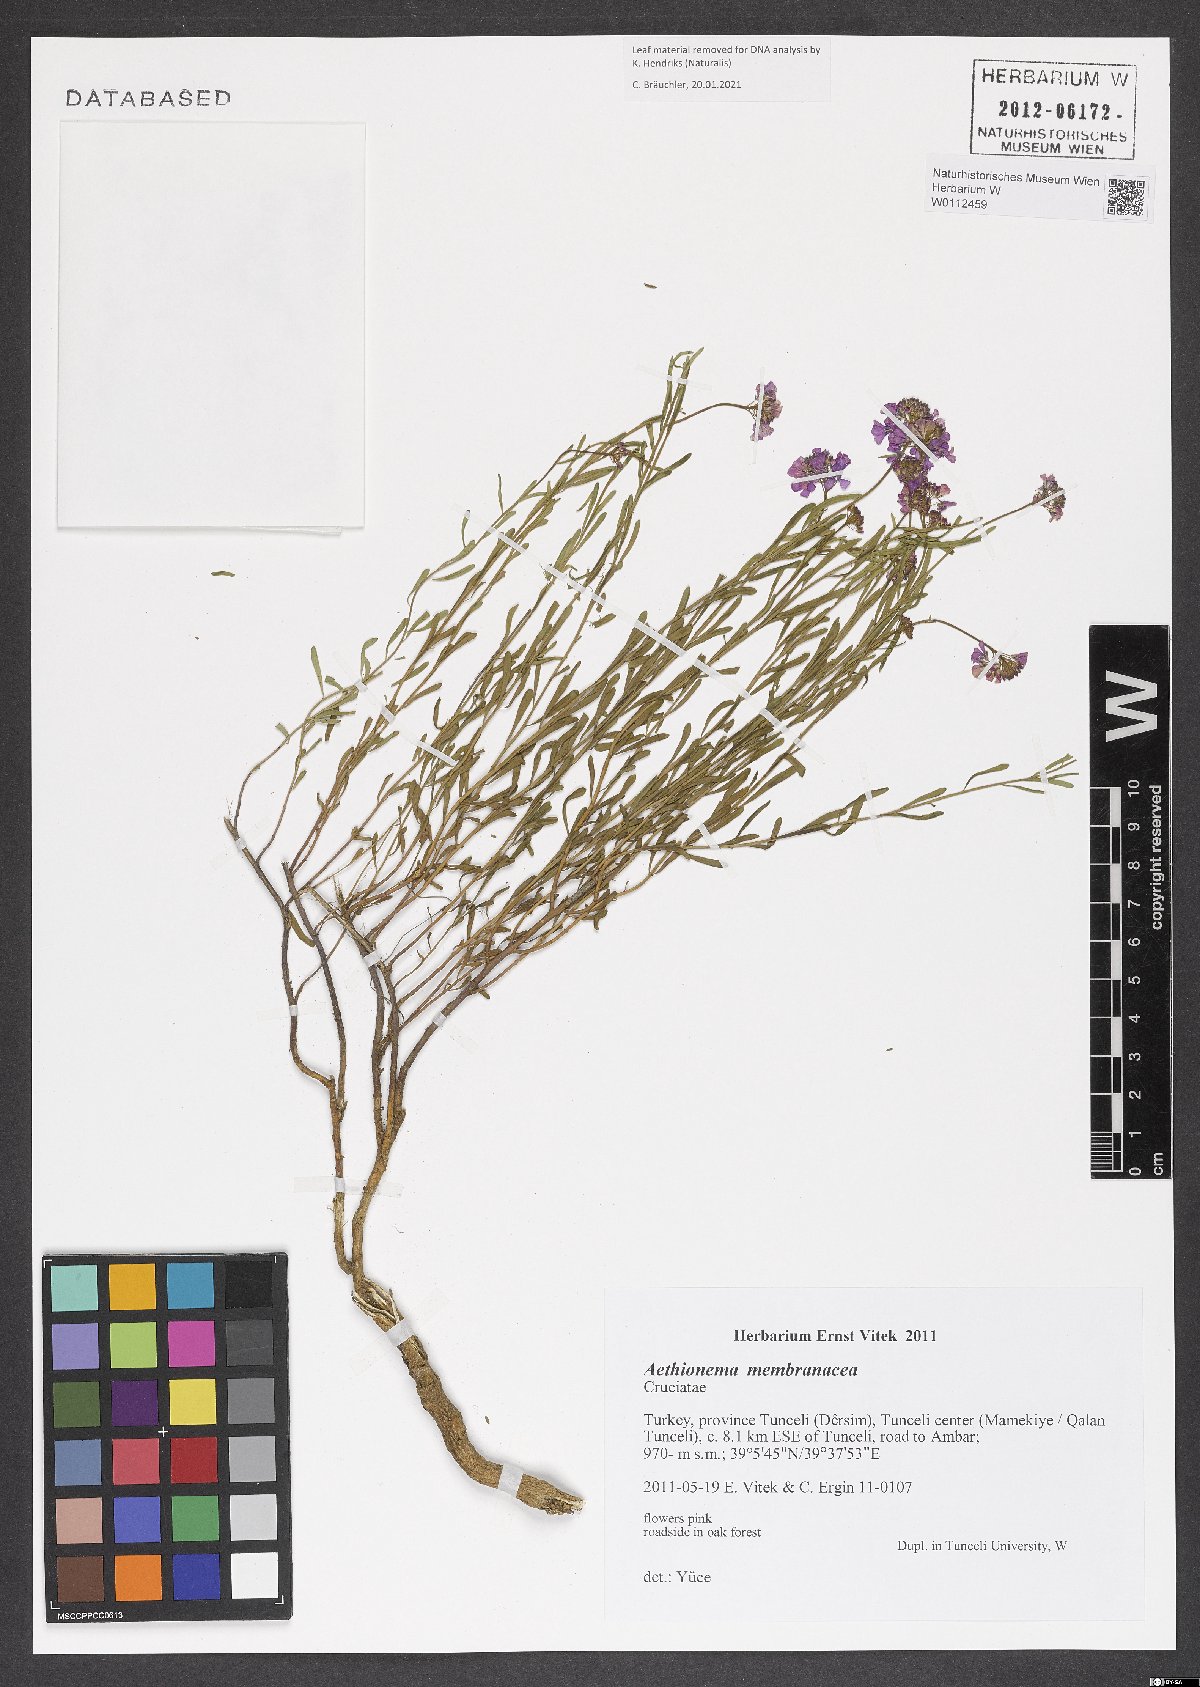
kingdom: Plantae
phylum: Tracheophyta
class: Magnoliopsida
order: Brassicales
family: Brassicaceae
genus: Aethionema
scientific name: Aethionema membranaceum
